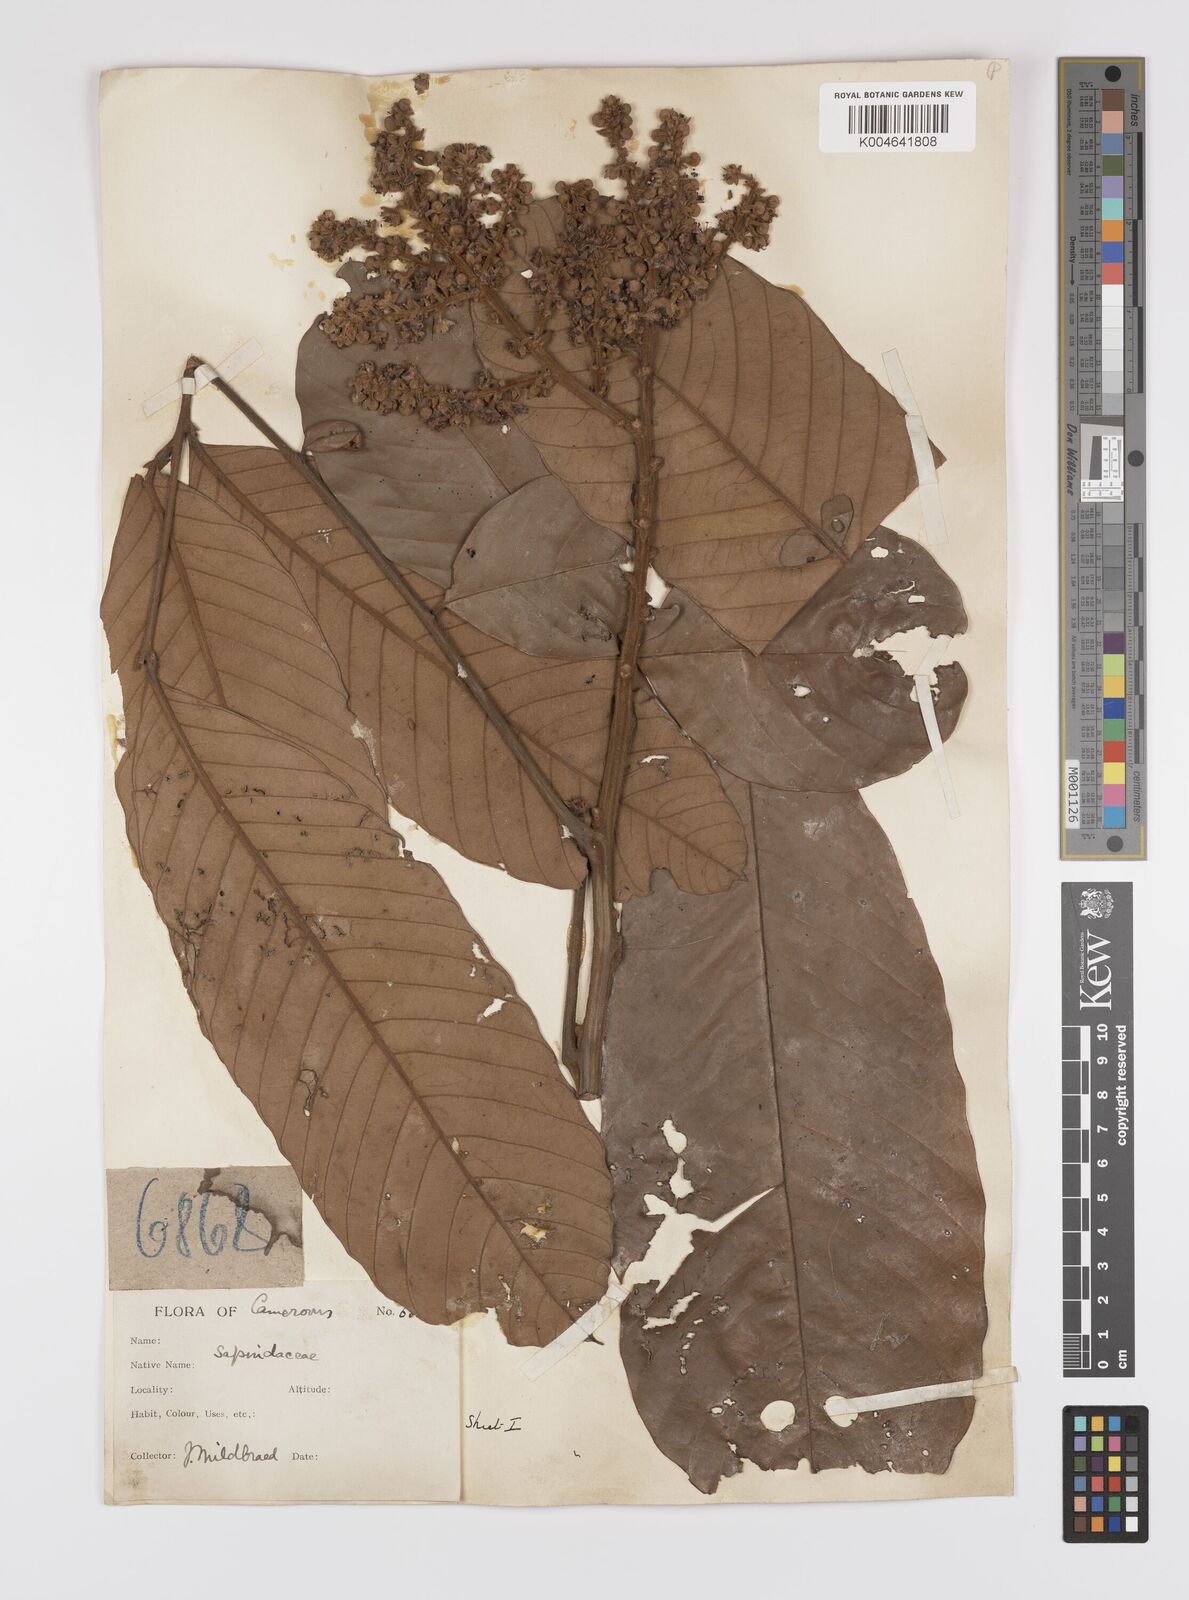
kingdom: Plantae
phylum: Tracheophyta
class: Magnoliopsida
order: Sapindales
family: Sapindaceae
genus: Lychnodiscus
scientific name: Lychnodiscus
